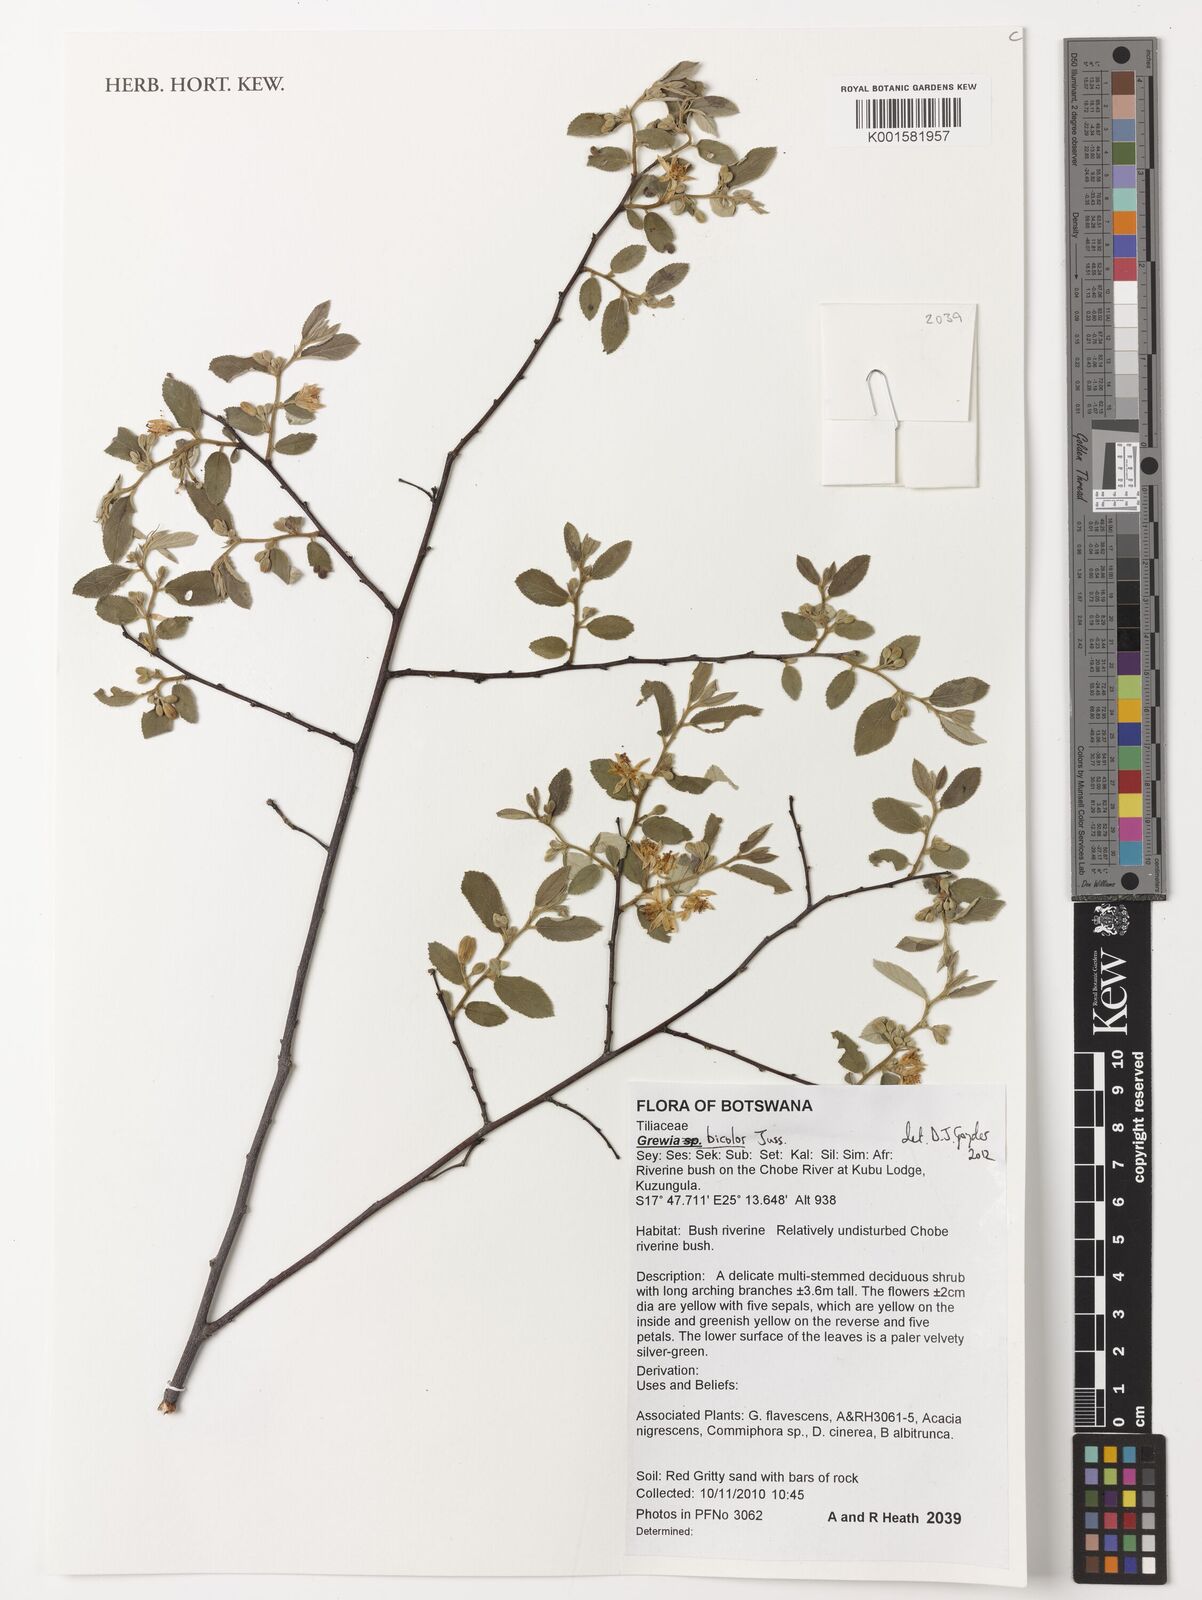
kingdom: Plantae
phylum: Tracheophyta
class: Magnoliopsida
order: Malvales
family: Malvaceae
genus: Grewia
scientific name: Grewia bicolor
